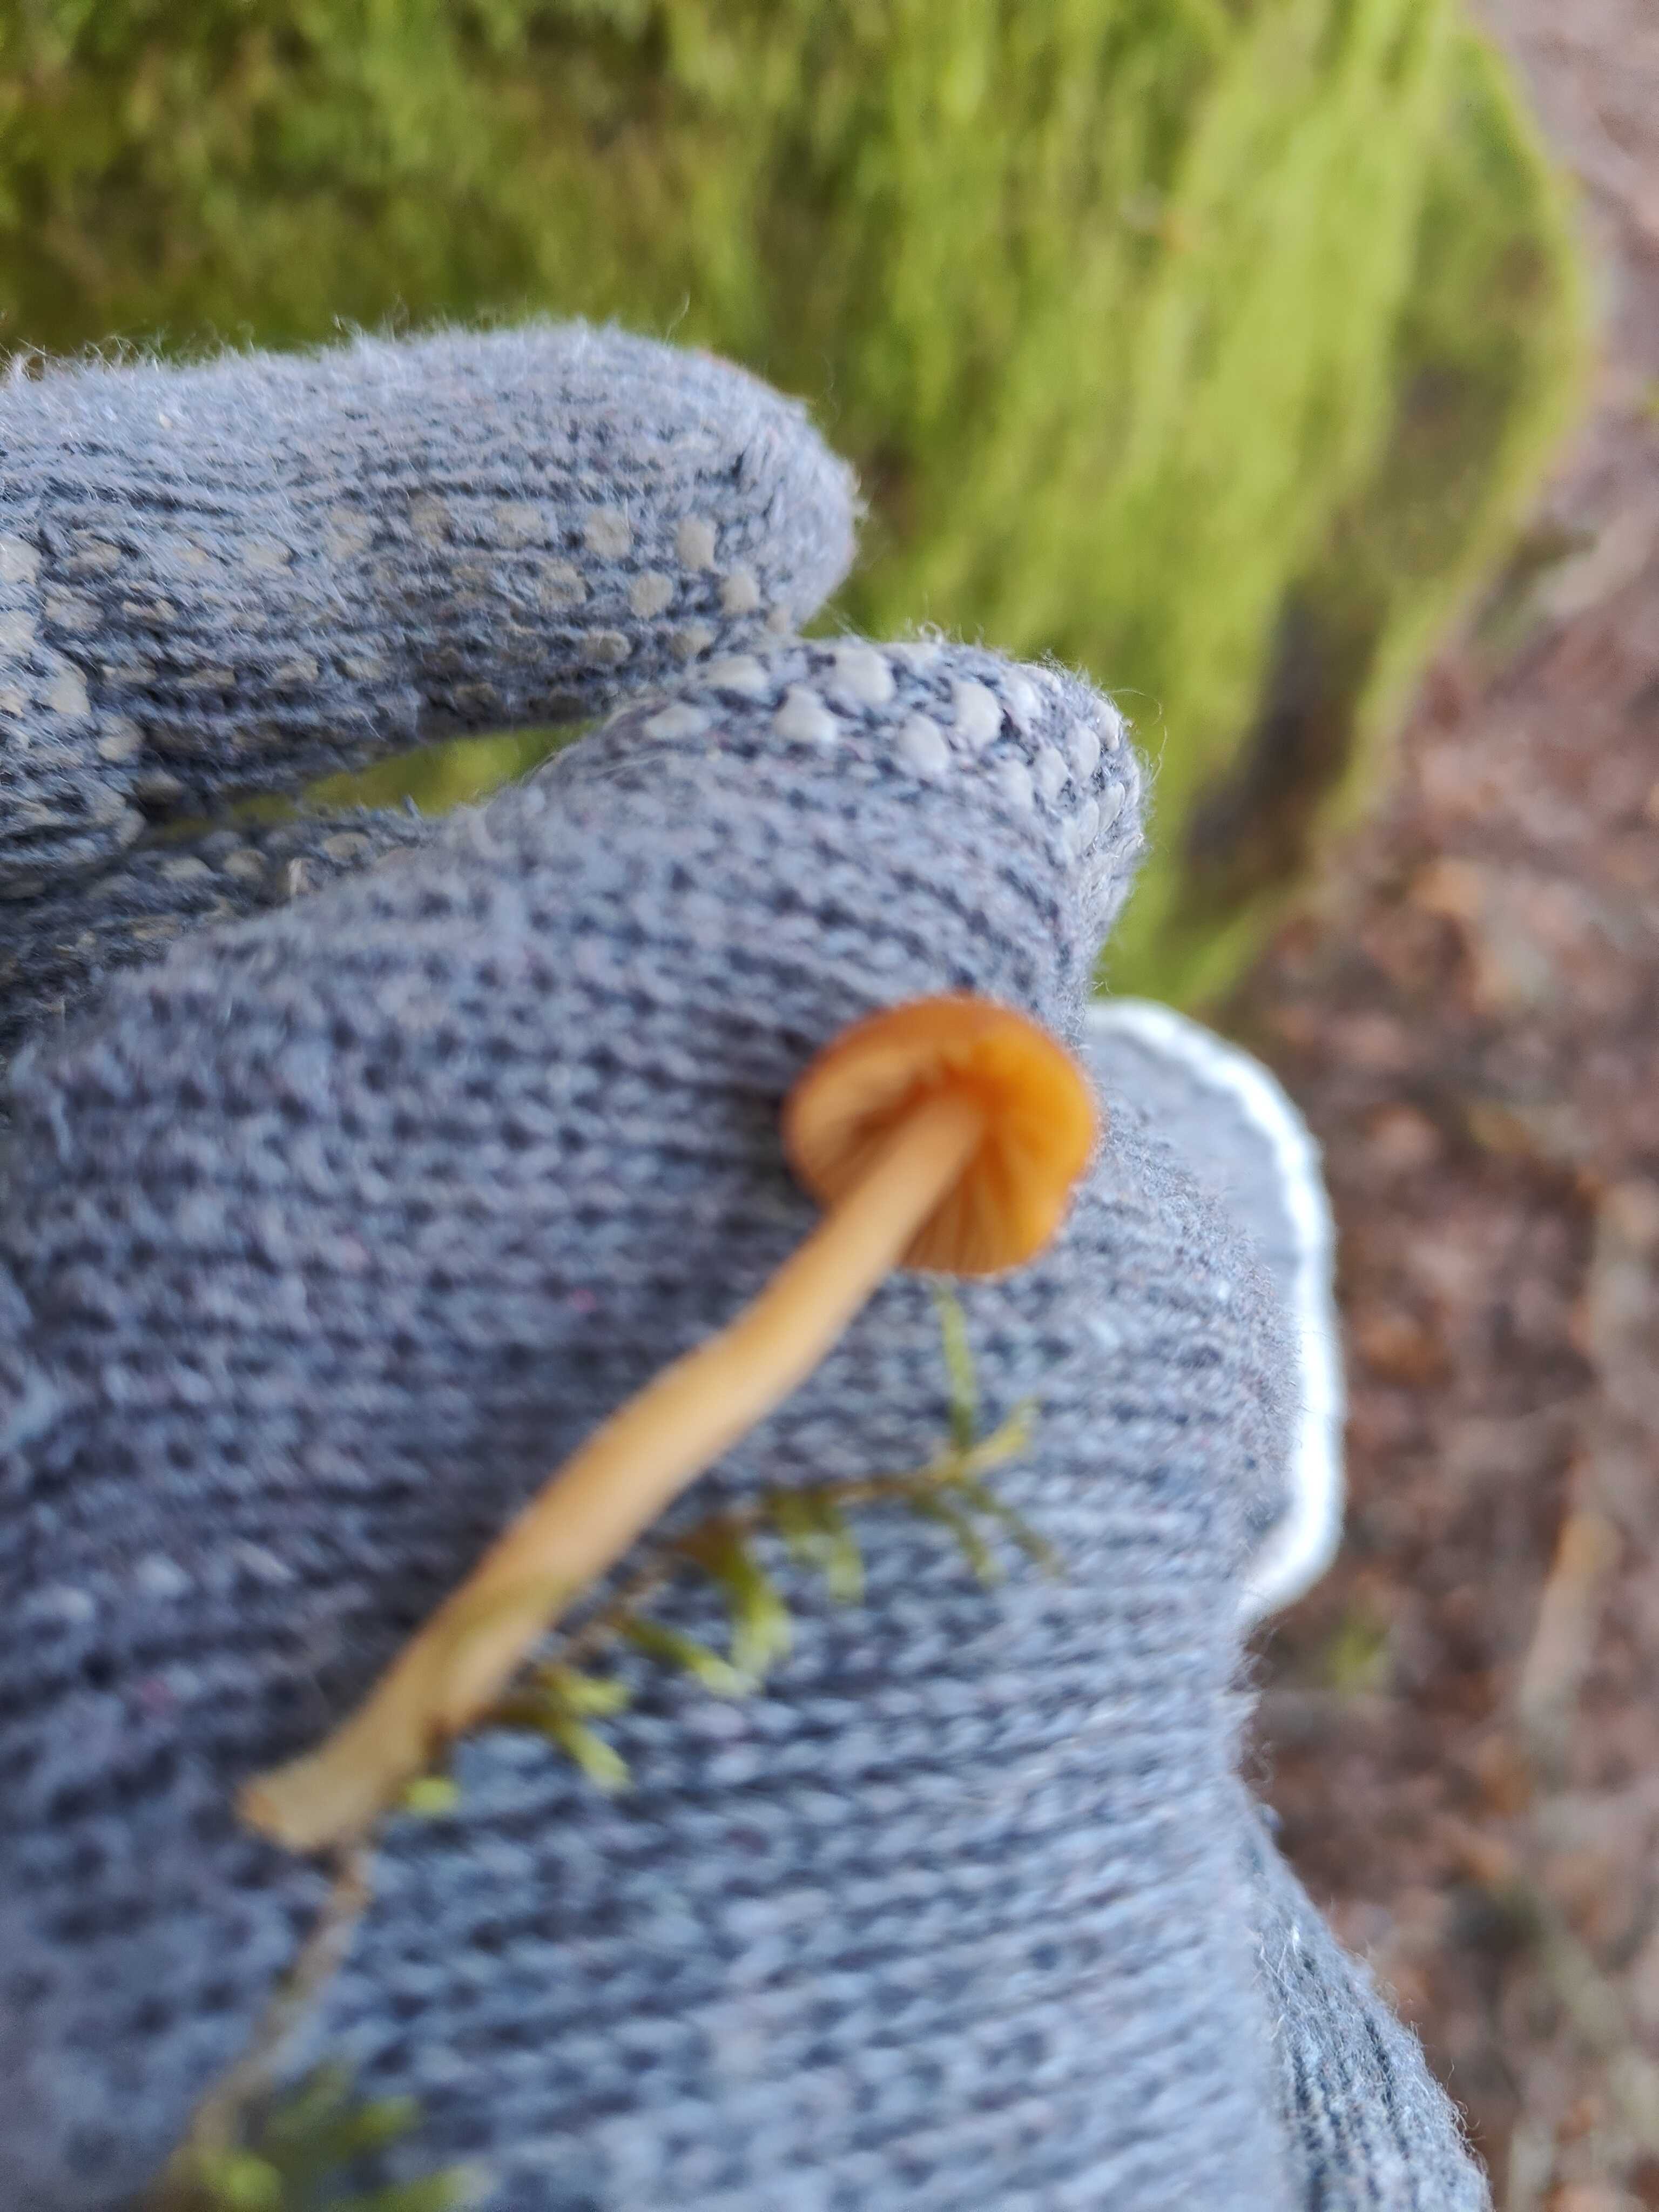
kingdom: Fungi
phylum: Basidiomycota
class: Agaricomycetes
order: Agaricales
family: Bolbitiaceae
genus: Conocybe
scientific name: Conocybe
